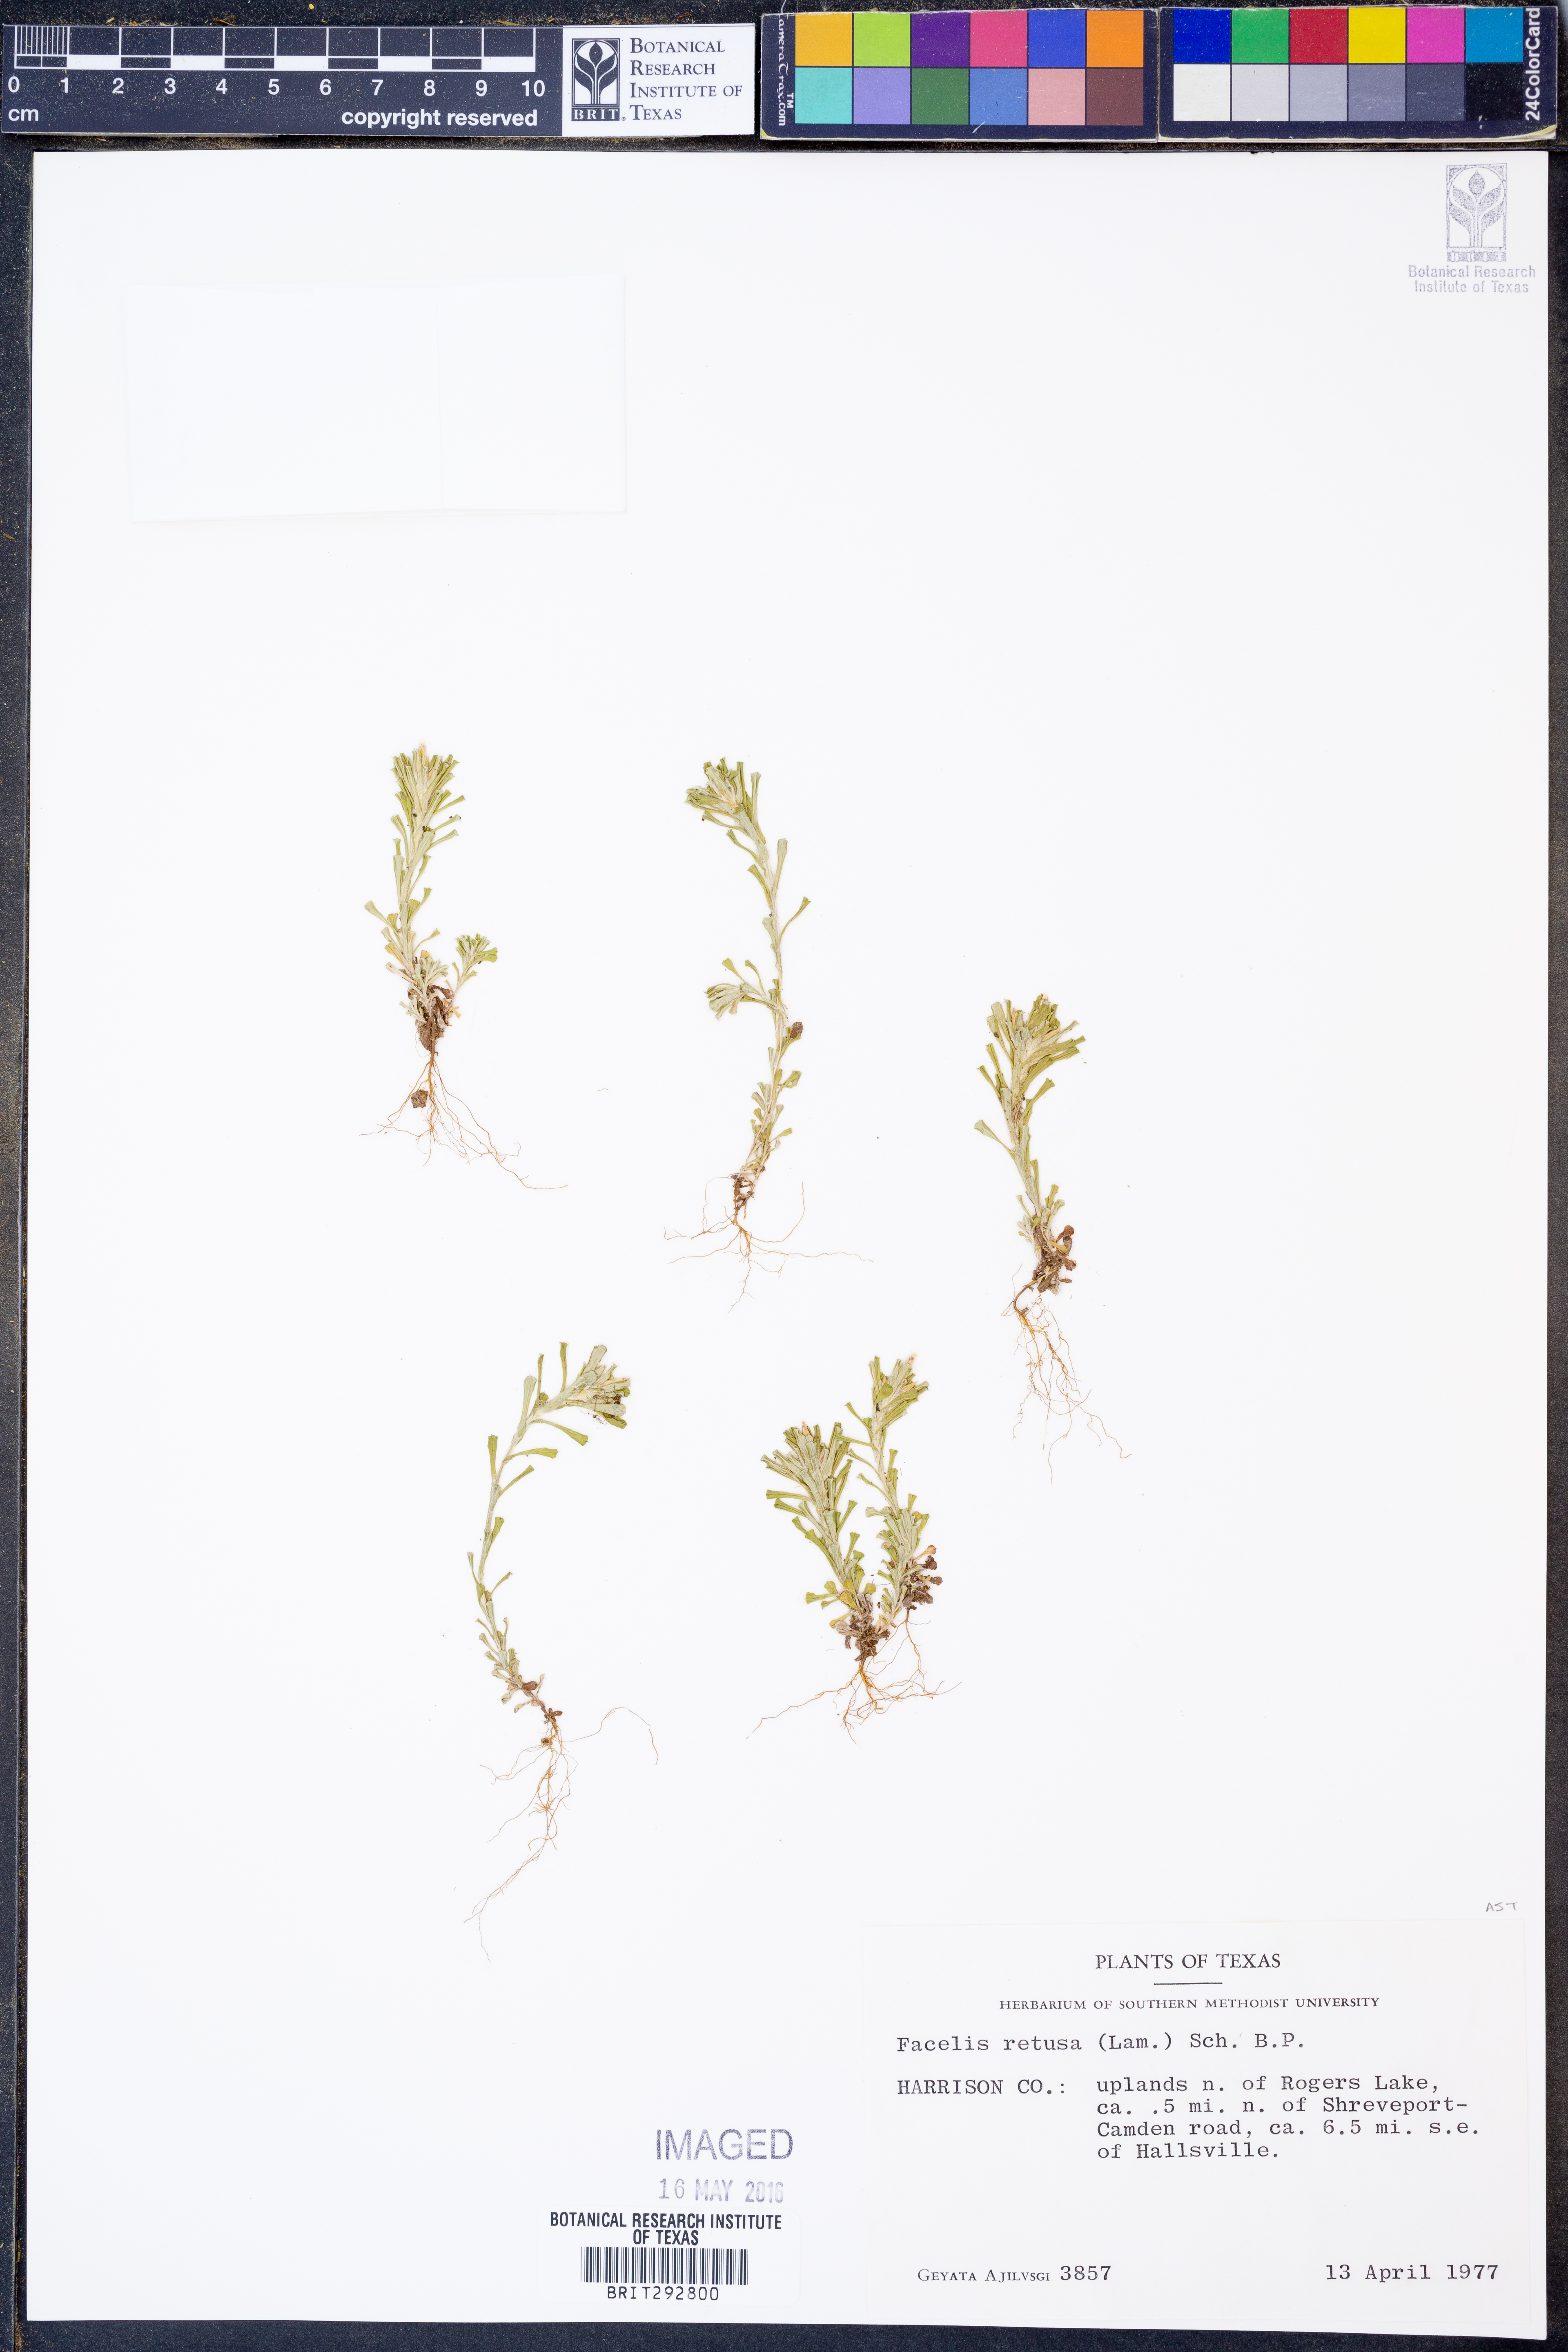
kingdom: Plantae
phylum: Tracheophyta
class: Magnoliopsida
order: Asterales
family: Asteraceae
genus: Facelis
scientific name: Facelis retusa
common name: Annual trampweed
